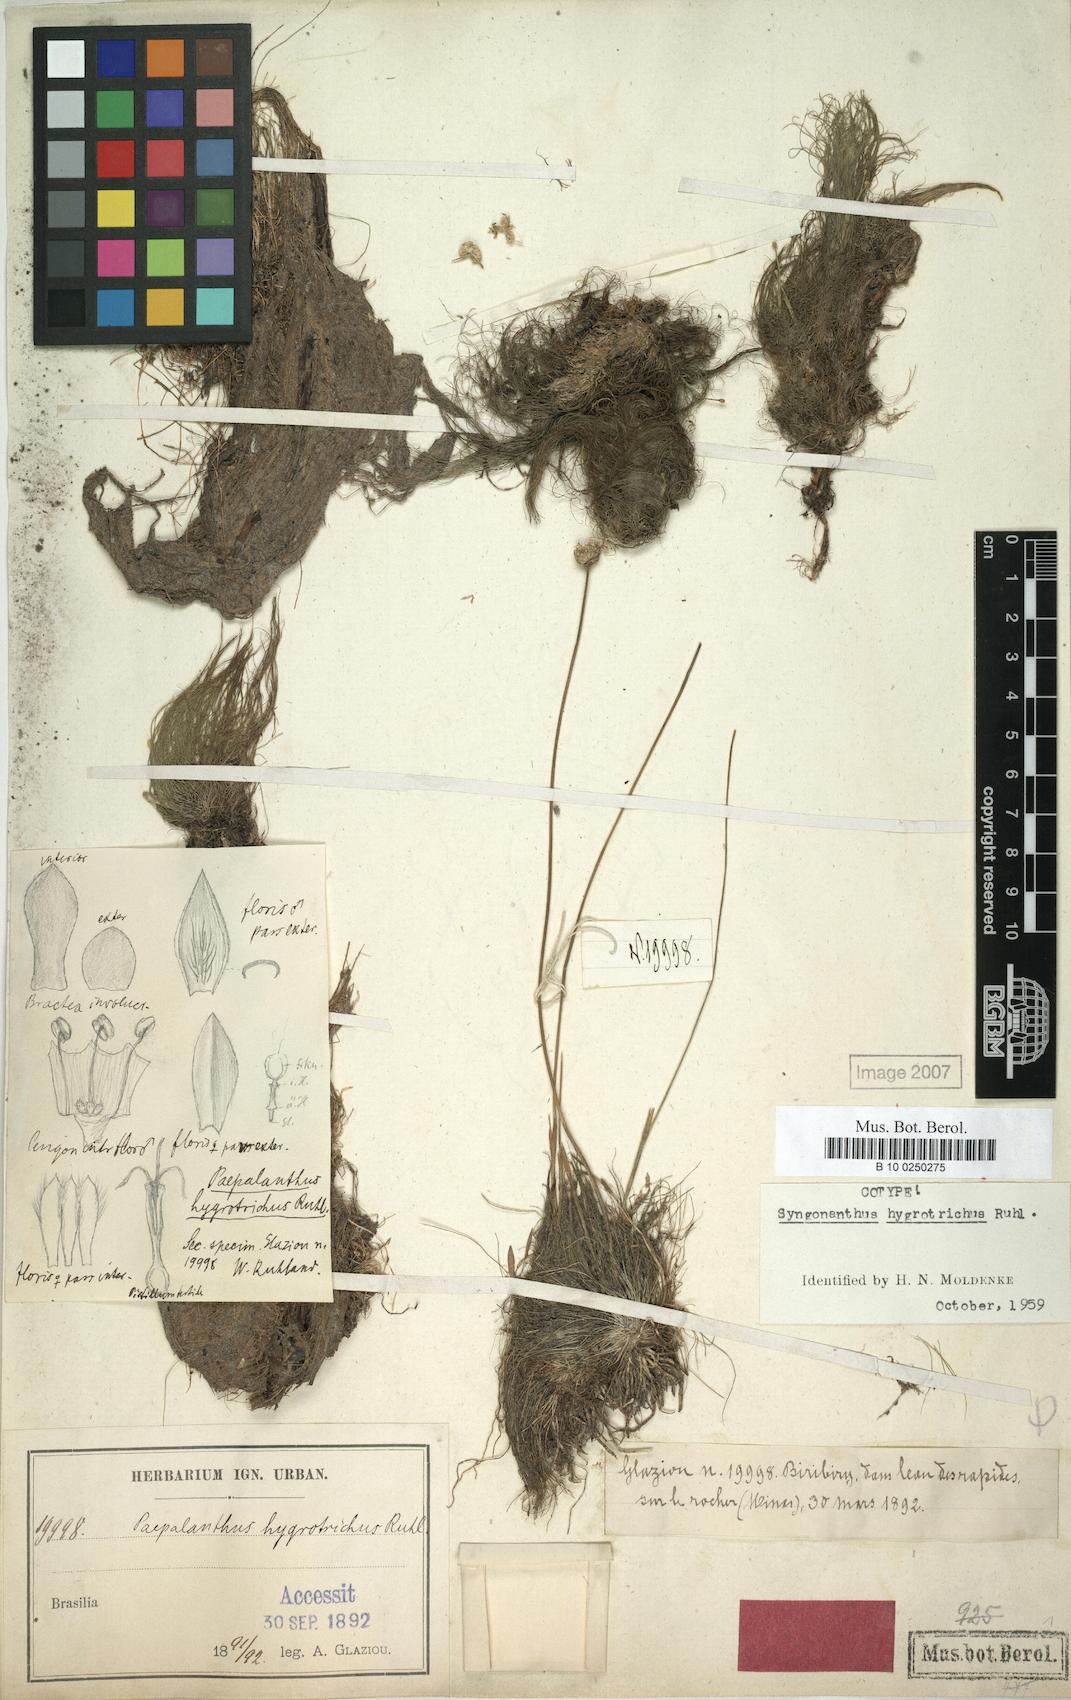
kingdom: Plantae
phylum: Tracheophyta
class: Liliopsida
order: Poales
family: Eriocaulaceae
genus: Syngonanthus
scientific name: Syngonanthus hygrotrichus
